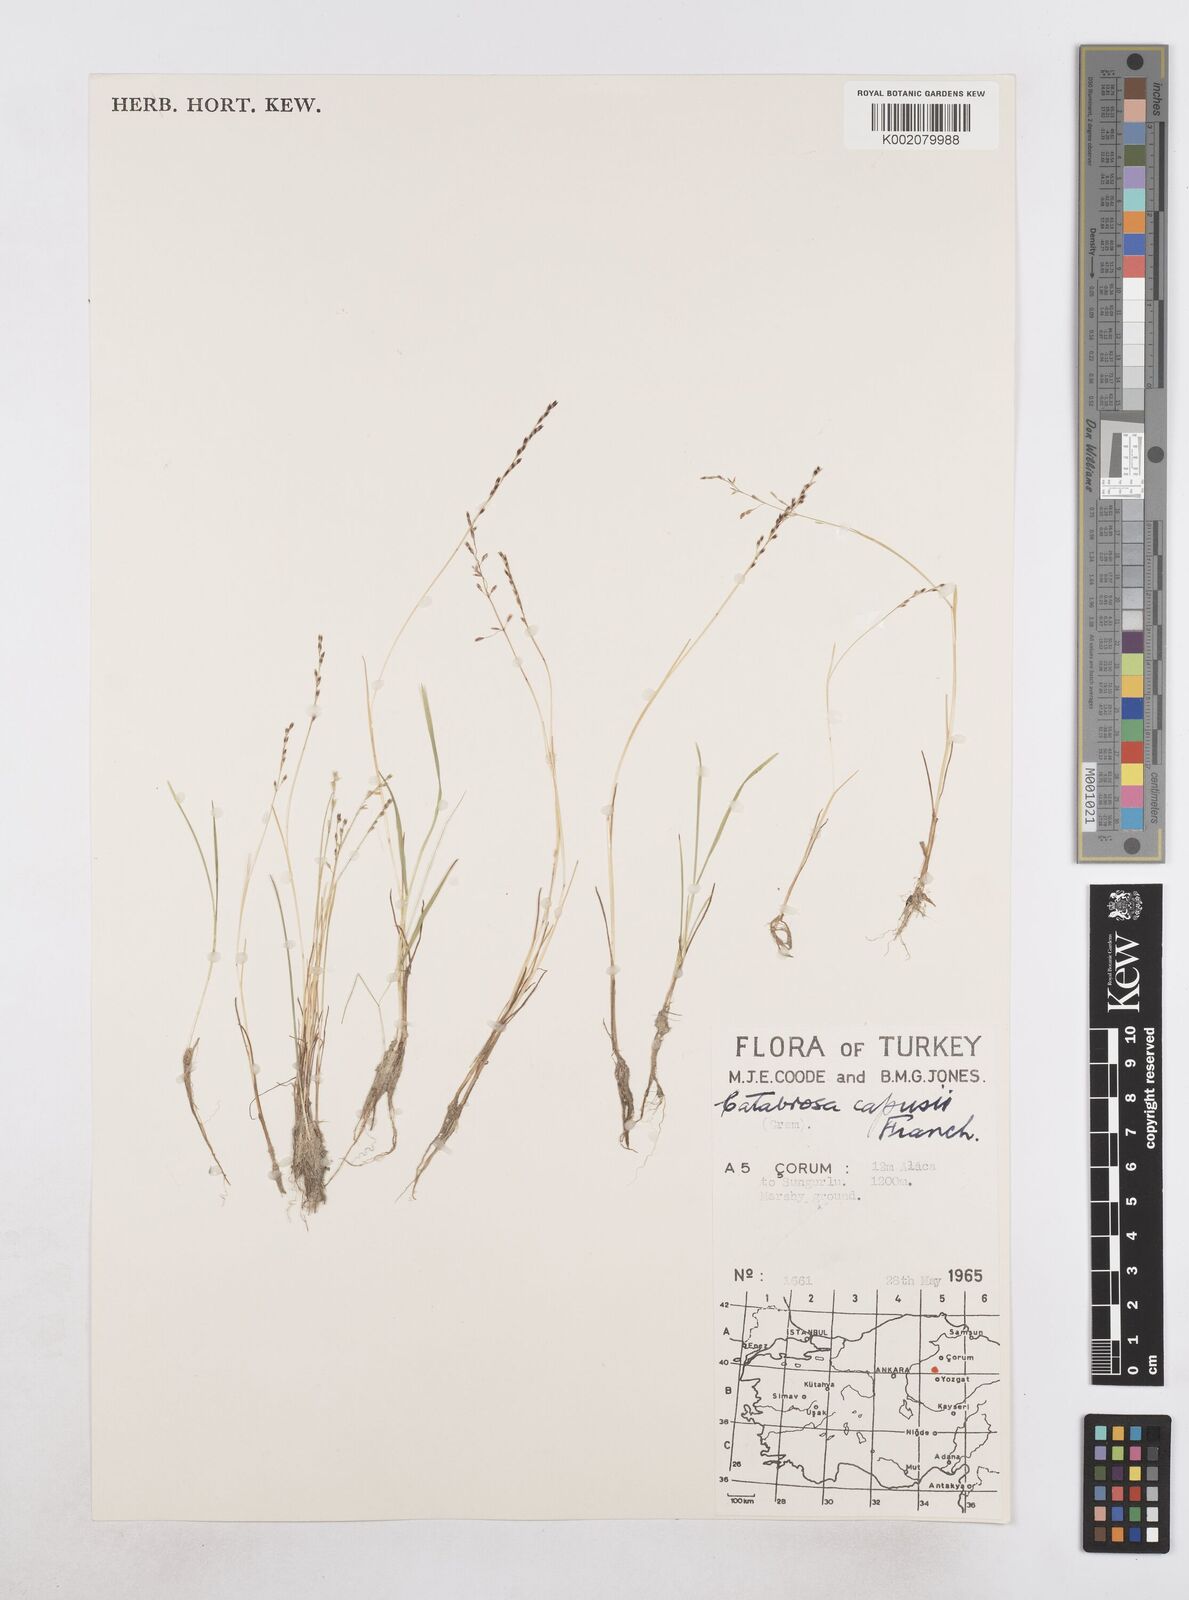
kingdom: Plantae
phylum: Tracheophyta
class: Liliopsida
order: Poales
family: Poaceae
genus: Catabrosa
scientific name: Catabrosa aquatica
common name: Whorl-grass
